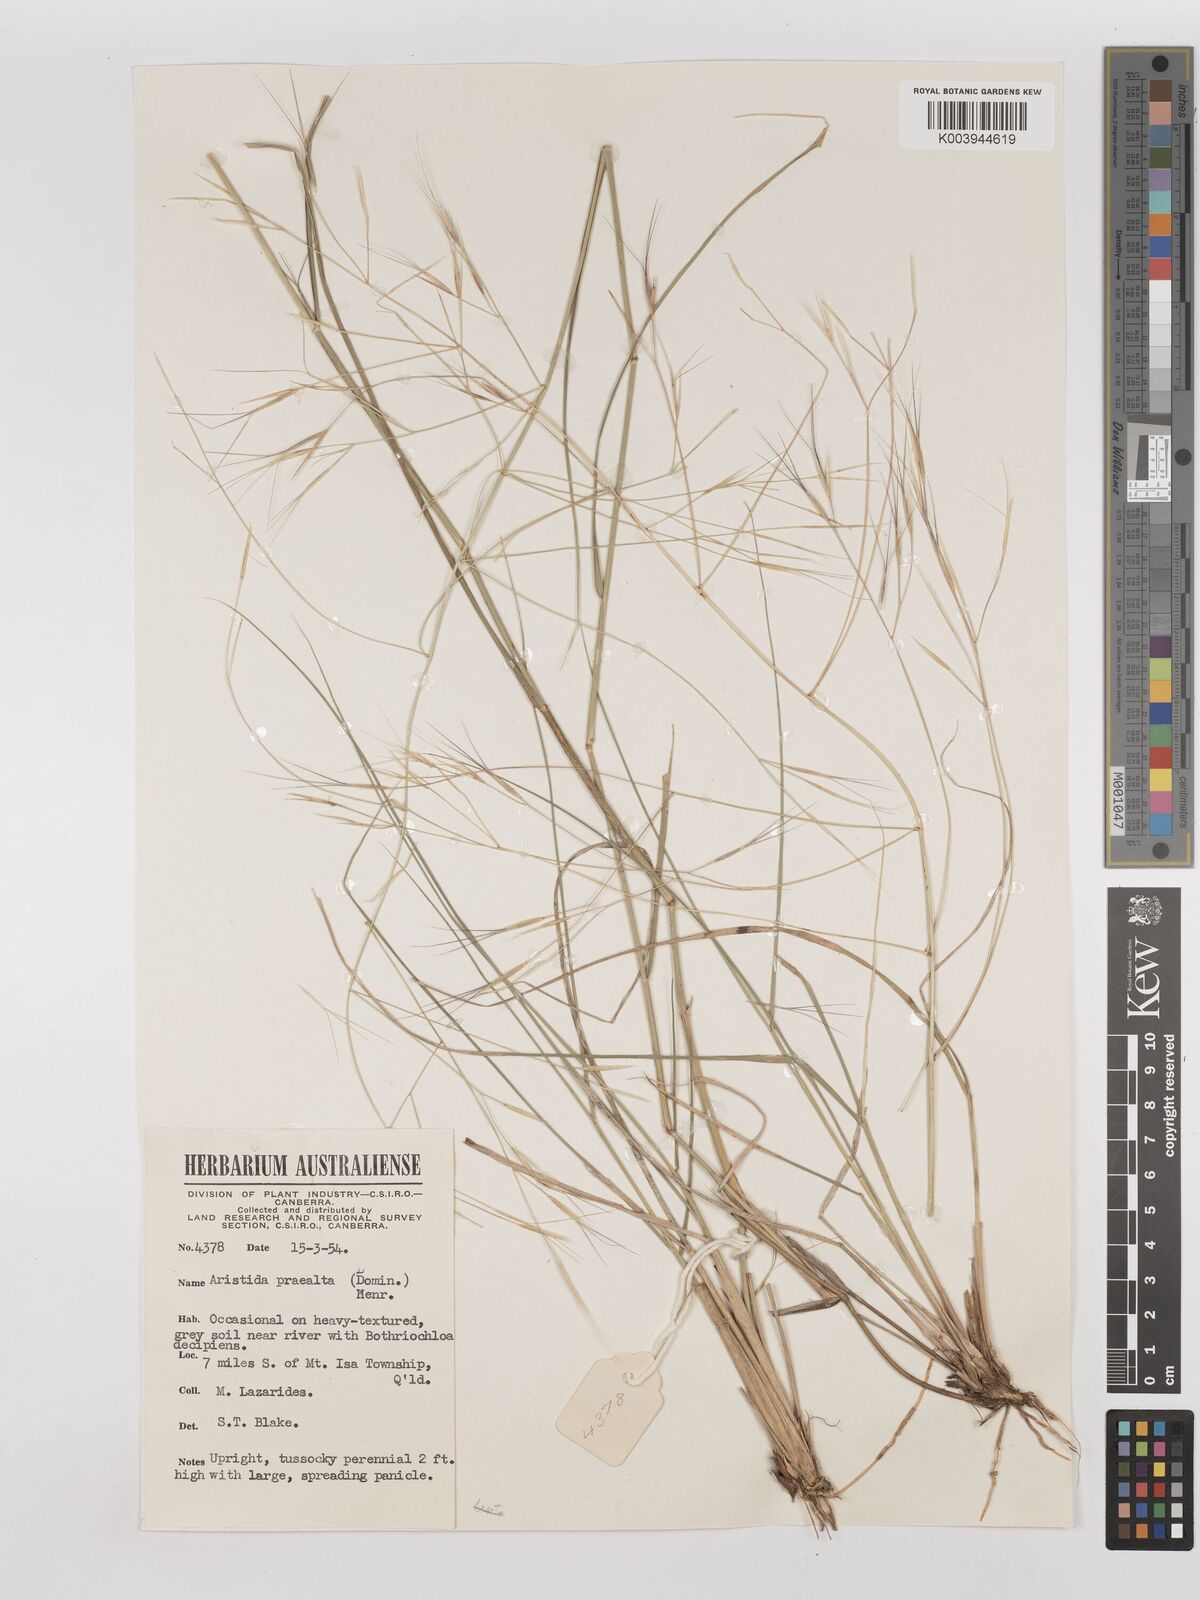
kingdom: Plantae
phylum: Tracheophyta
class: Liliopsida
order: Poales
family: Poaceae
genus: Aristida
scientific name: Aristida calycina
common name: Dark wire grass
